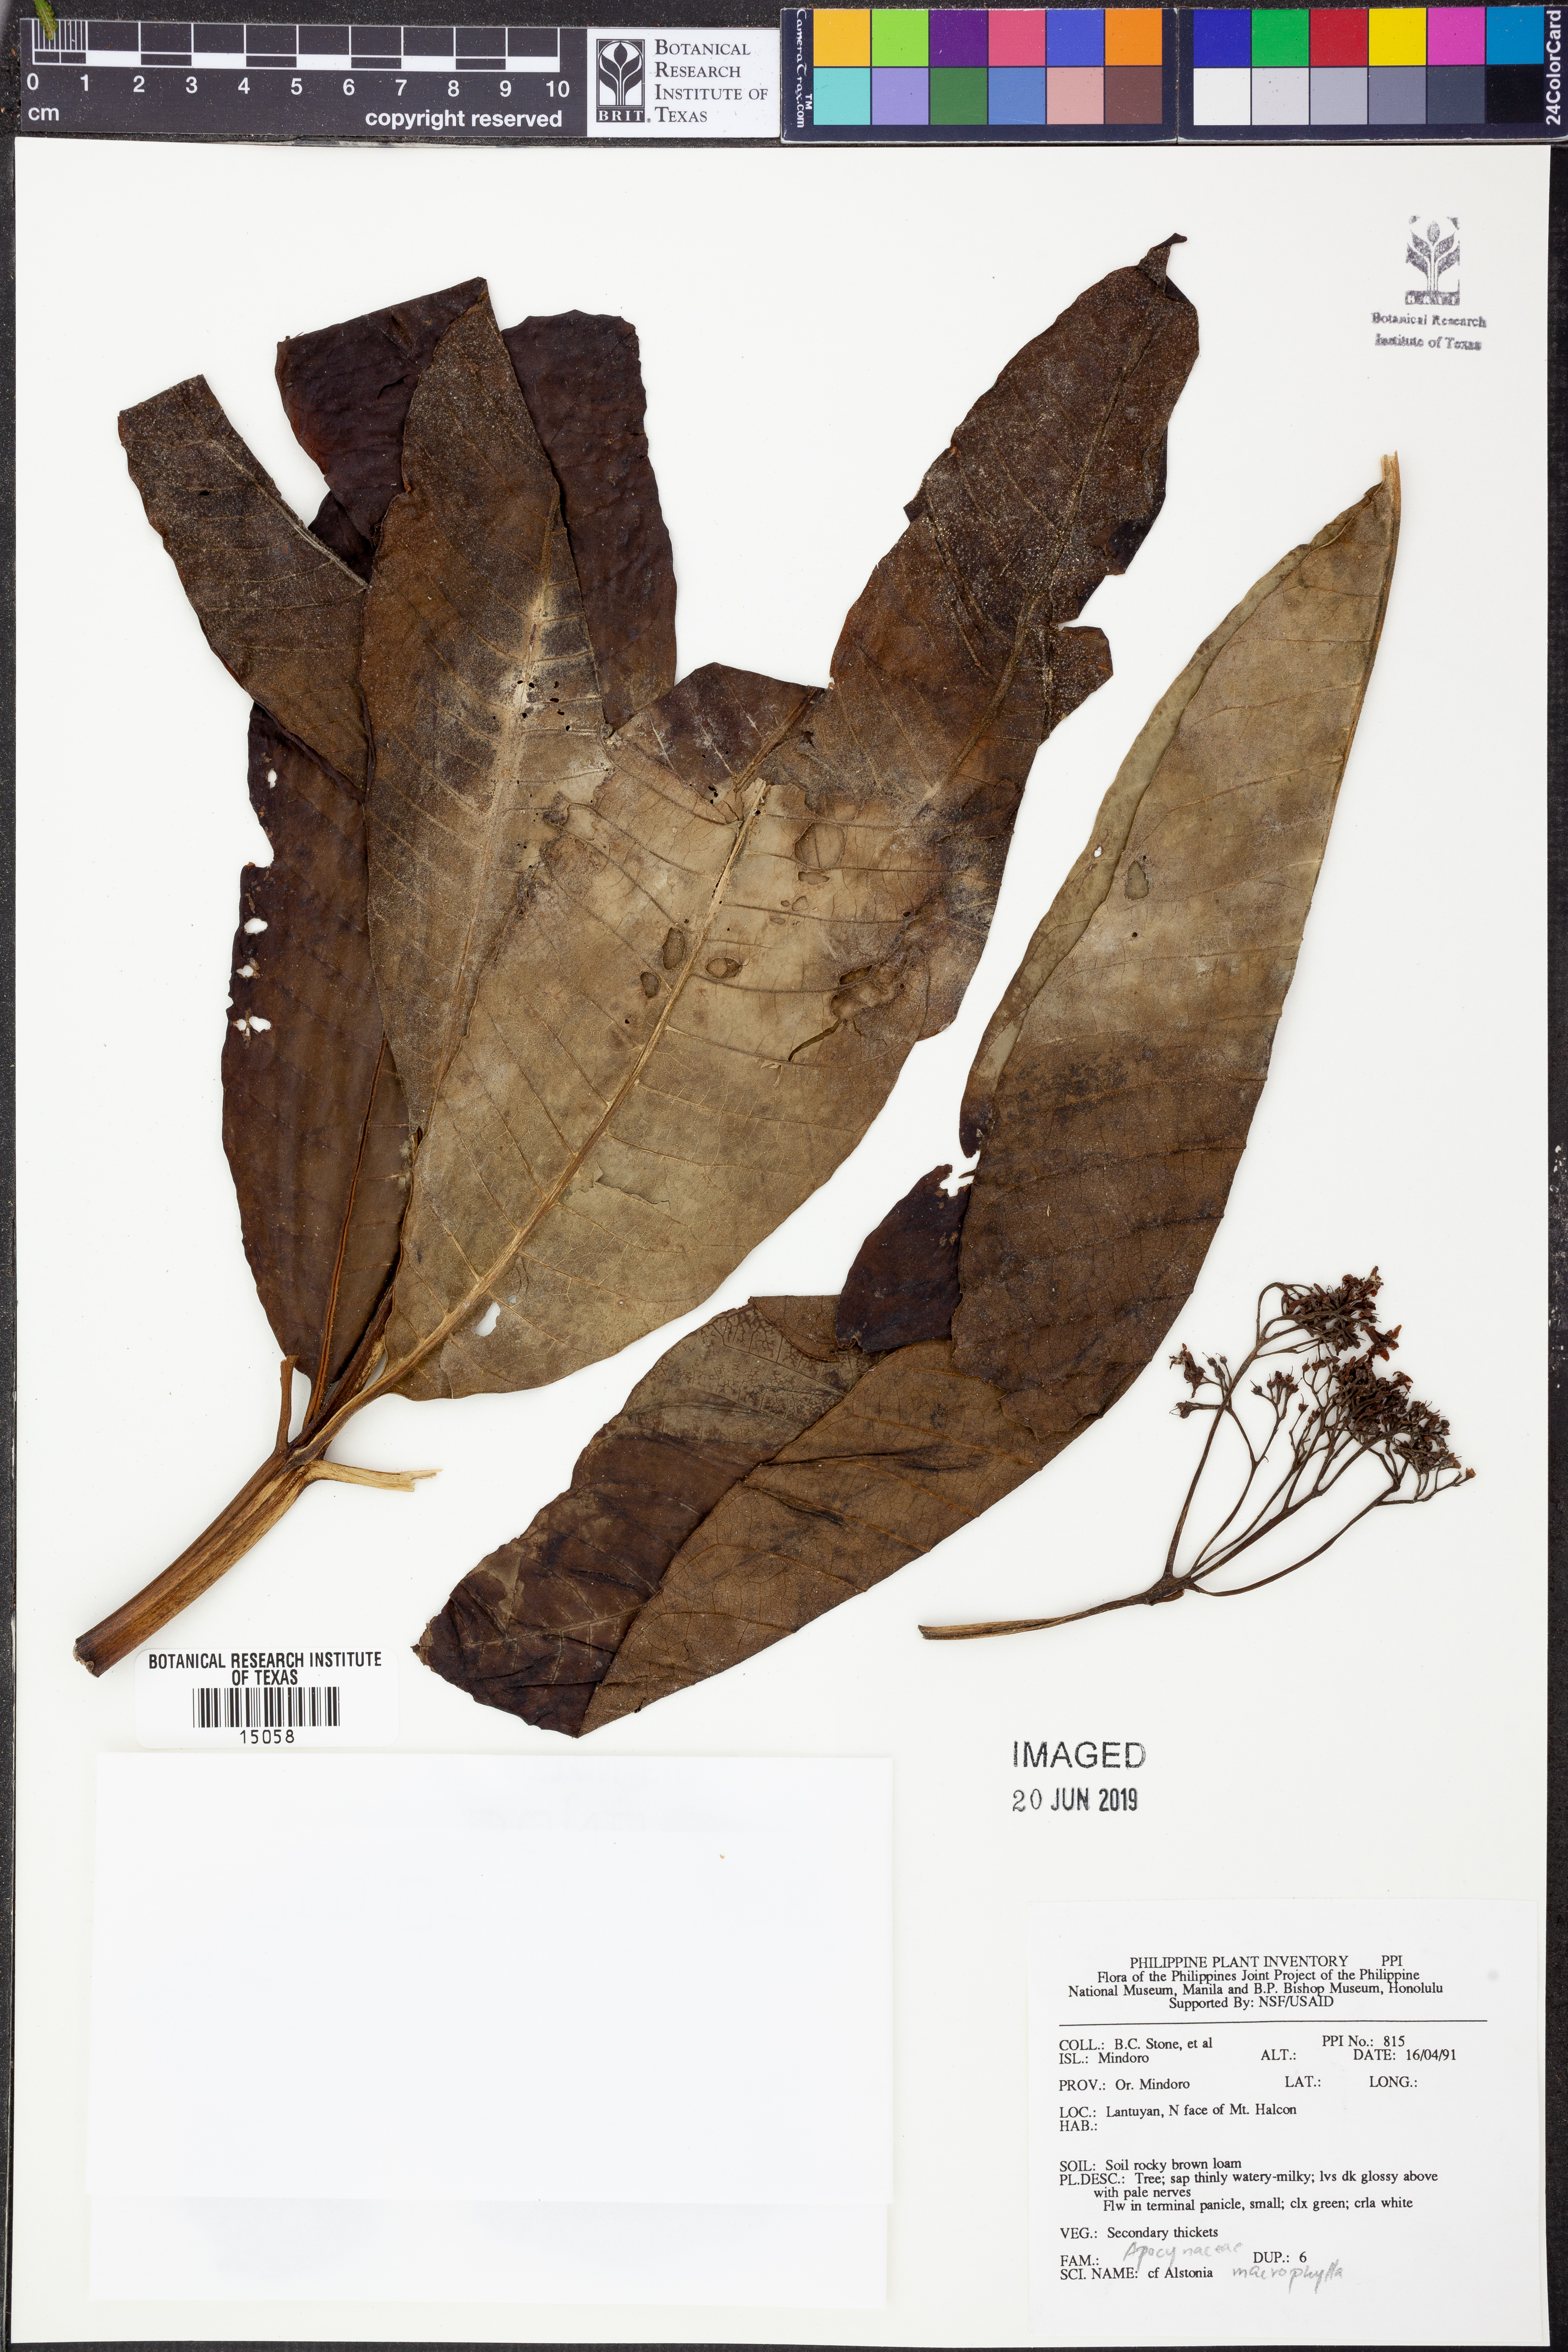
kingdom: Plantae
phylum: Tracheophyta
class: Magnoliopsida
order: Gentianales
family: Apocynaceae
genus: Alstonia
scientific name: Alstonia macrophylla
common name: Deviltree
